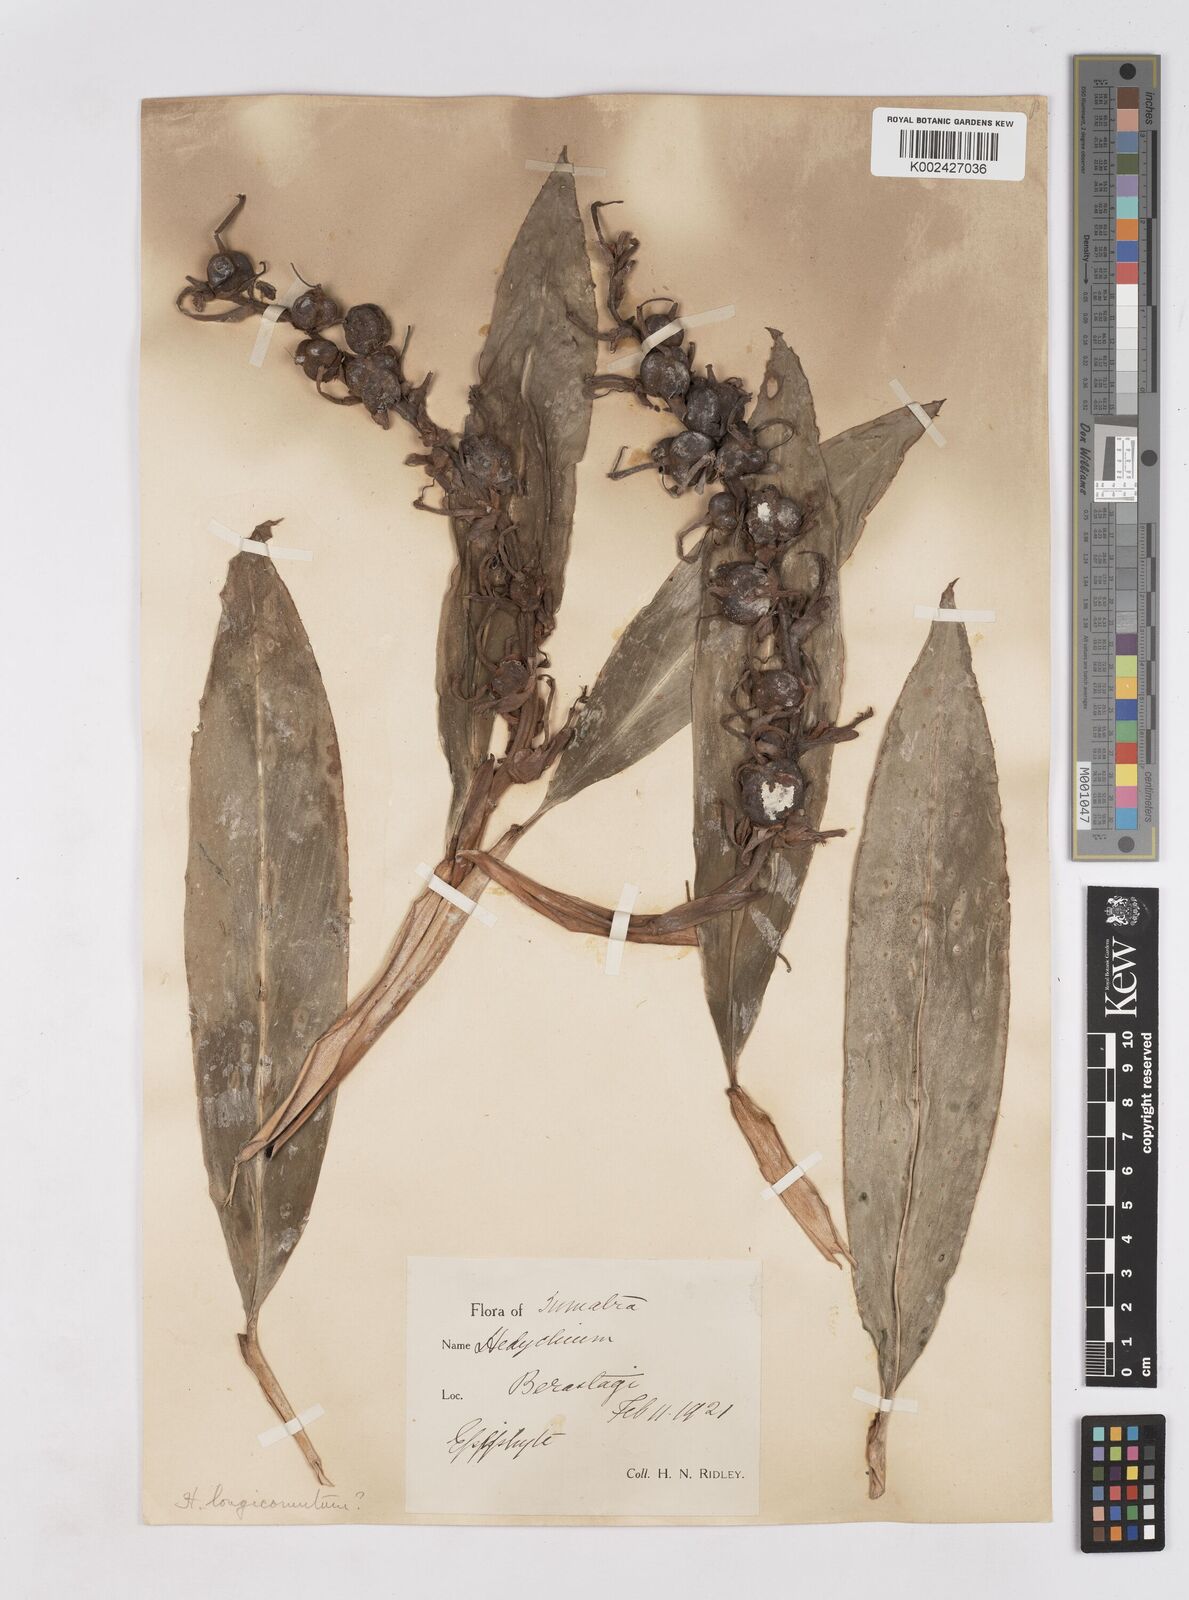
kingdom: Plantae
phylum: Tracheophyta
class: Liliopsida
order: Zingiberales
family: Zingiberaceae
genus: Hedychium
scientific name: Hedychium longicornutum
